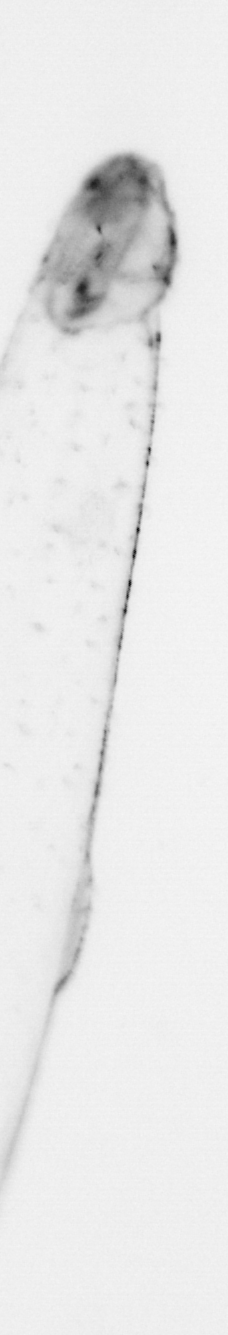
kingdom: Animalia
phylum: Chaetognatha
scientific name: Chaetognatha
